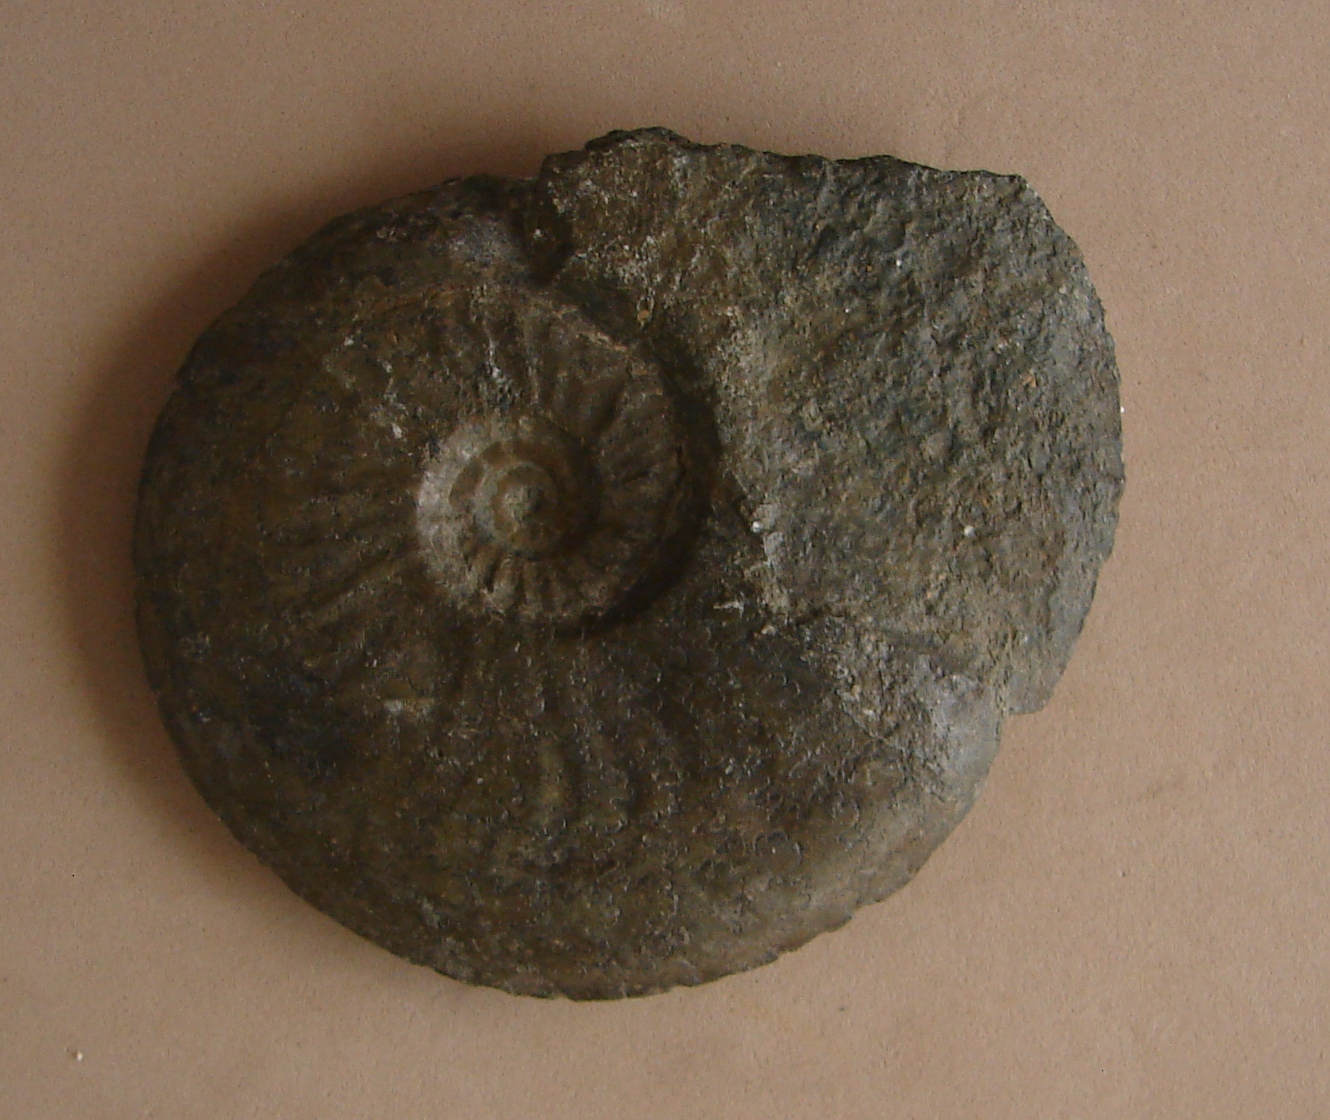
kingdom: Animalia
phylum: Mollusca
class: Cephalopoda
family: Hildoceratidae
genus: Cotteswoldia
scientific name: Cotteswoldia
